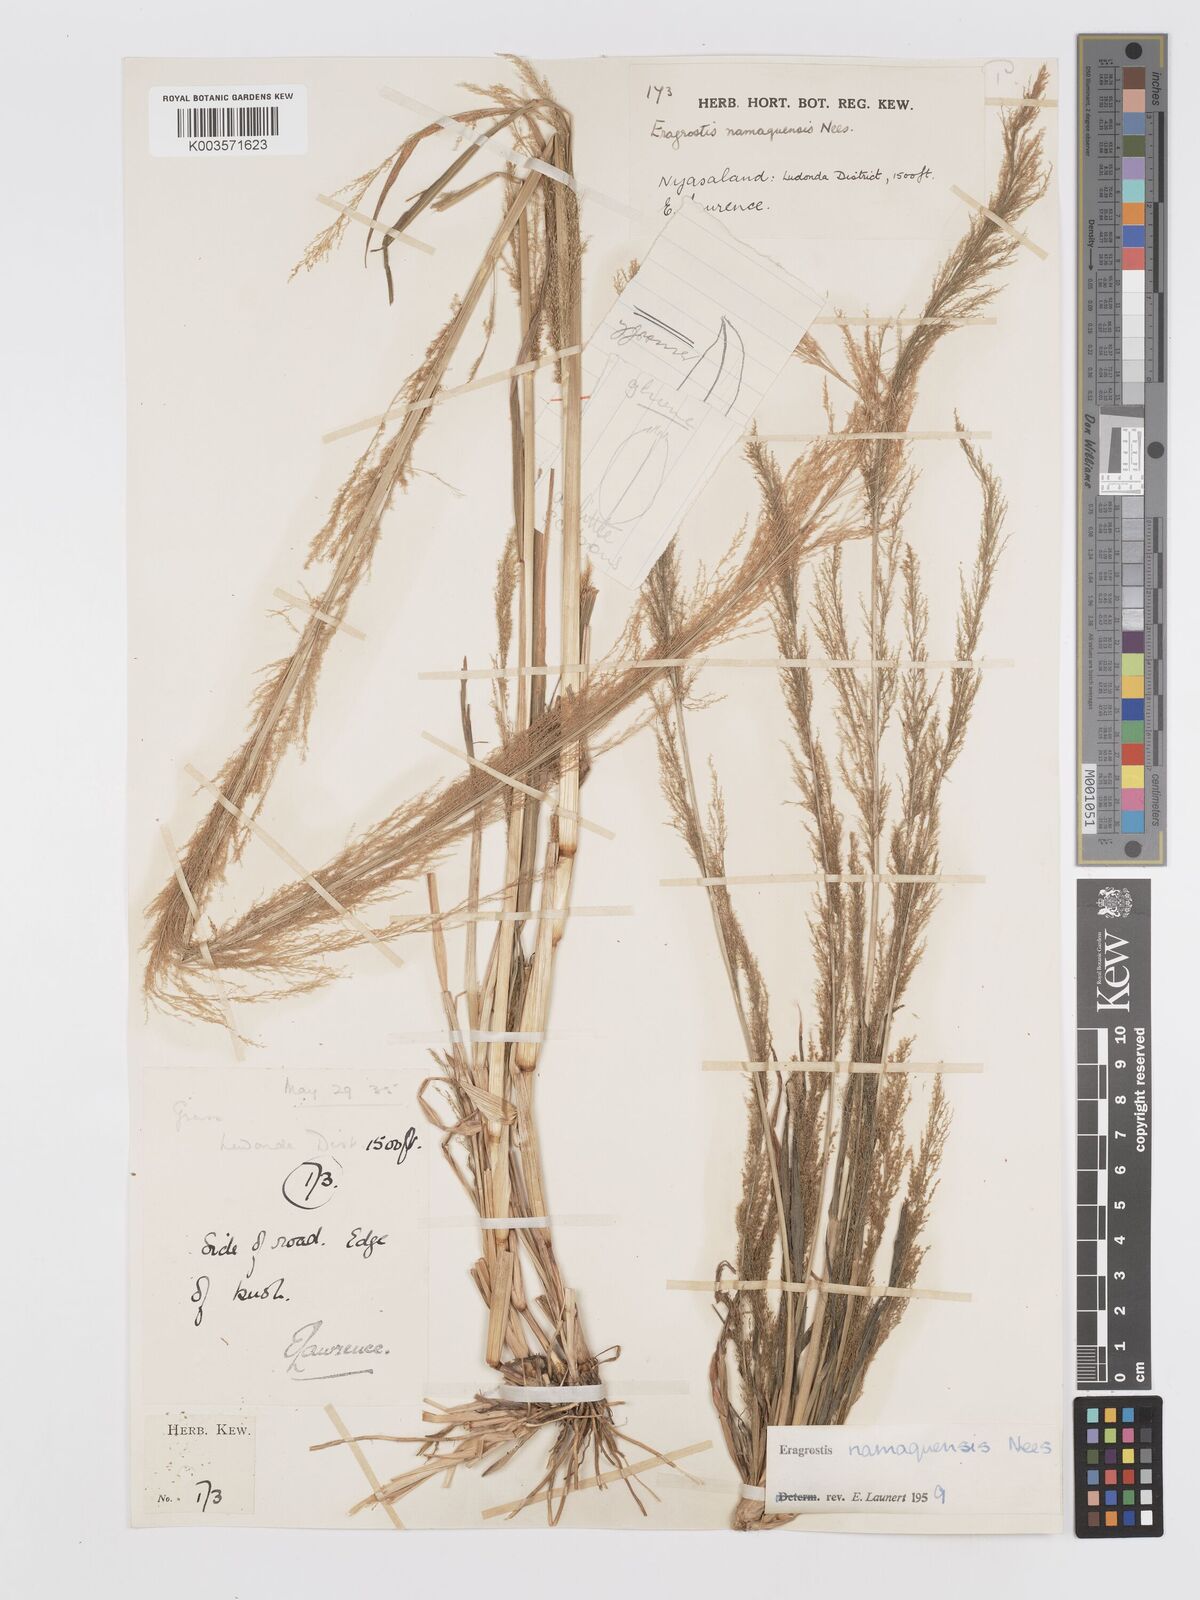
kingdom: Plantae
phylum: Tracheophyta
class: Liliopsida
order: Poales
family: Poaceae
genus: Eragrostis
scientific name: Eragrostis japonica
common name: Pond lovegrass
